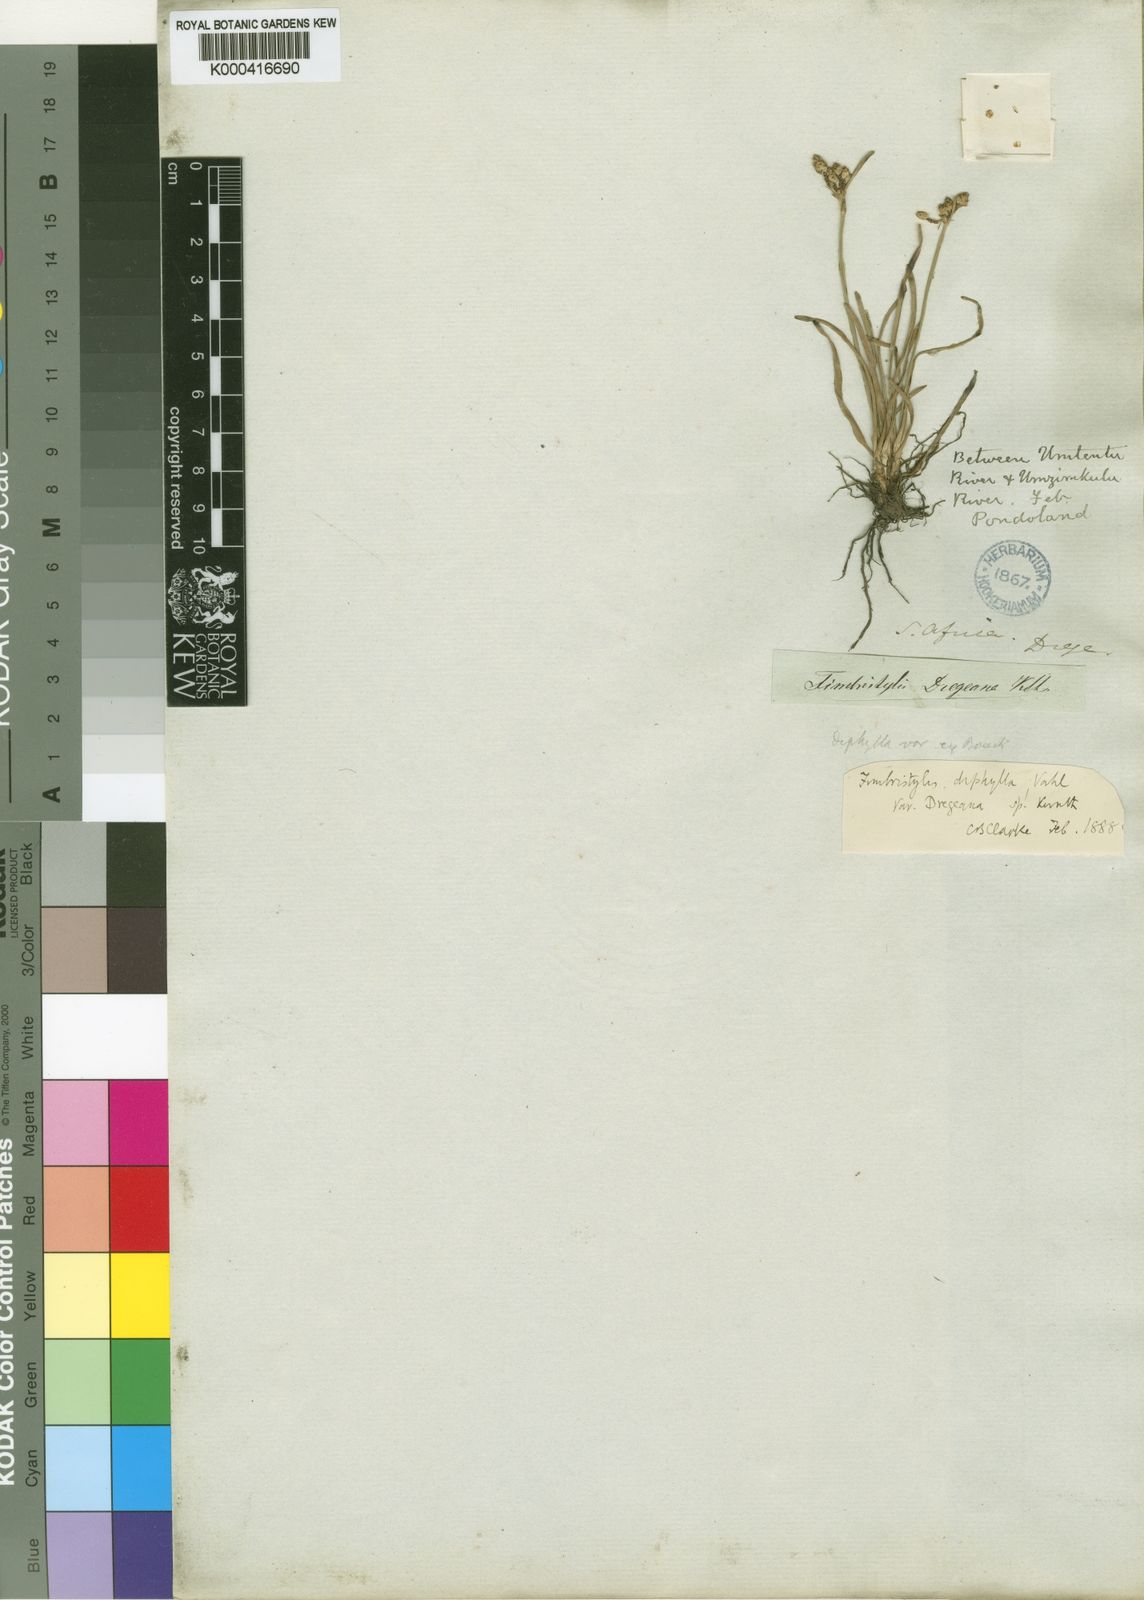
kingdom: Plantae
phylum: Tracheophyta
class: Liliopsida
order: Poales
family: Cyperaceae
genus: Fimbristylis
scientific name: Fimbristylis dichotoma
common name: Forked fimbry
